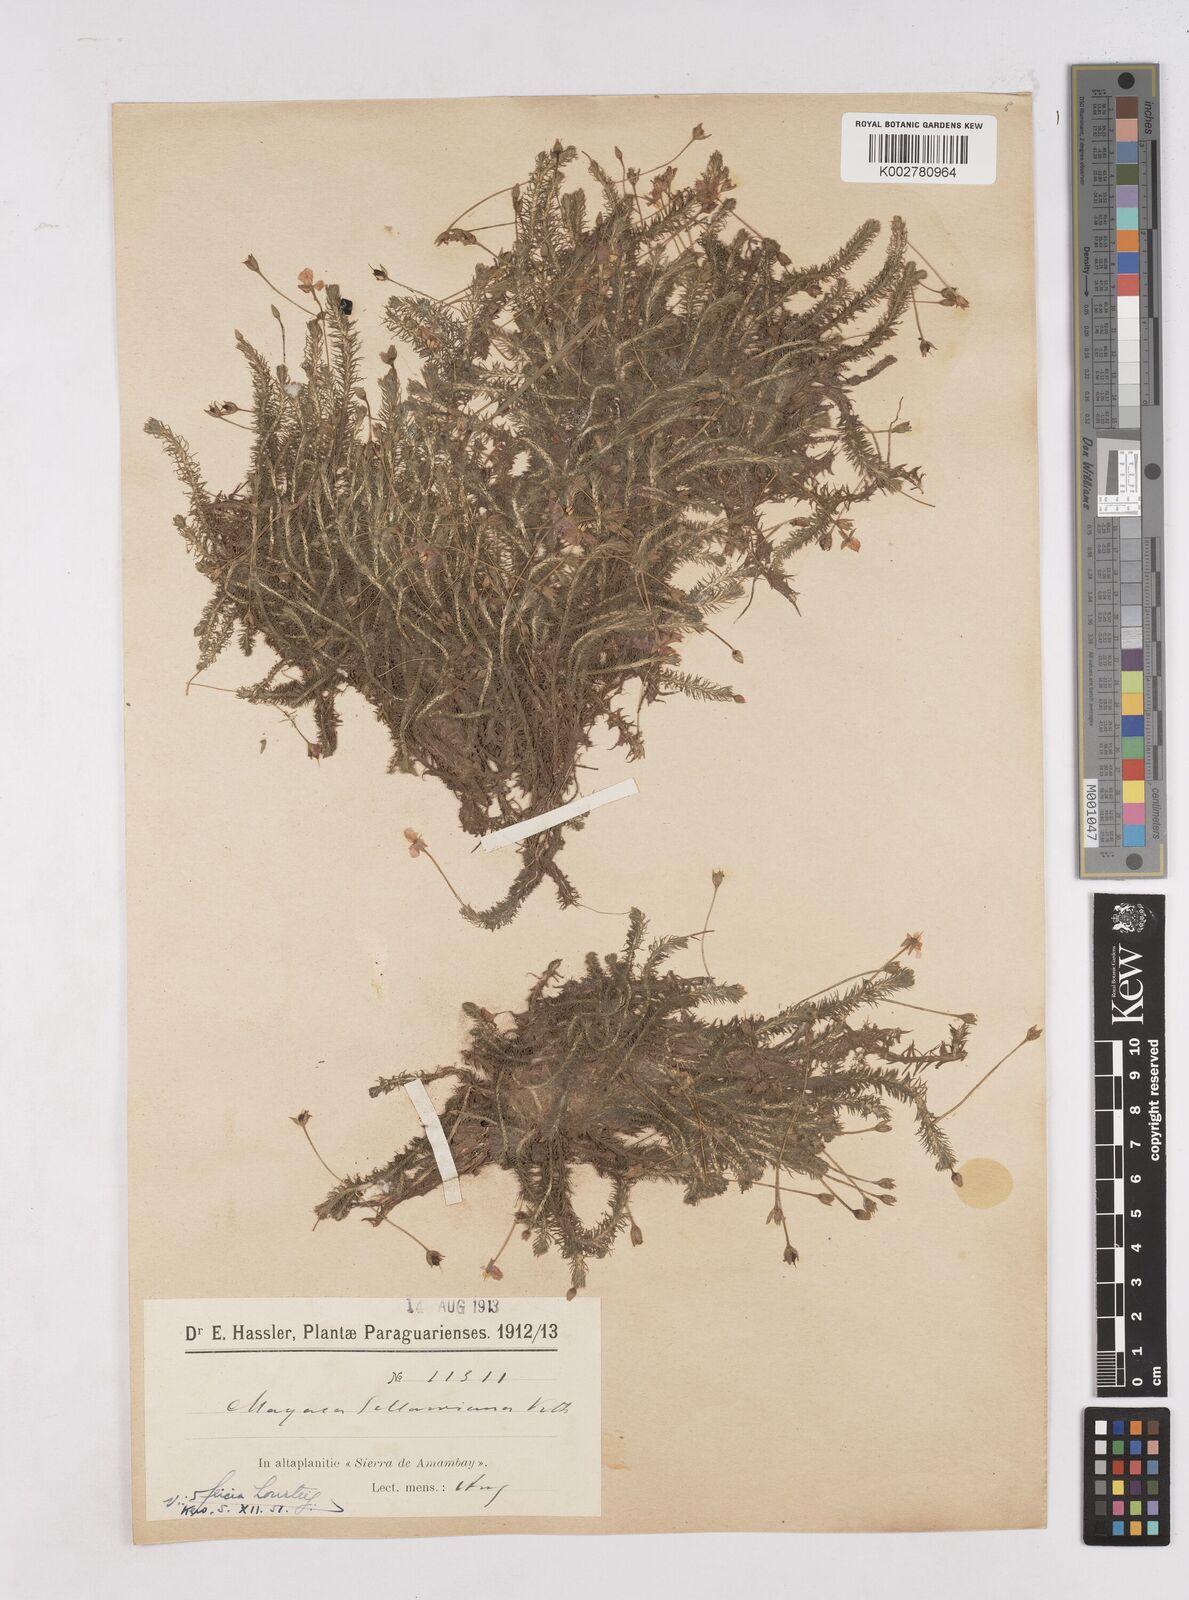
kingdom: Plantae
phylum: Tracheophyta
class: Liliopsida
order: Poales
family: Mayacaceae
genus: Mayaca
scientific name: Mayaca sellowiana
